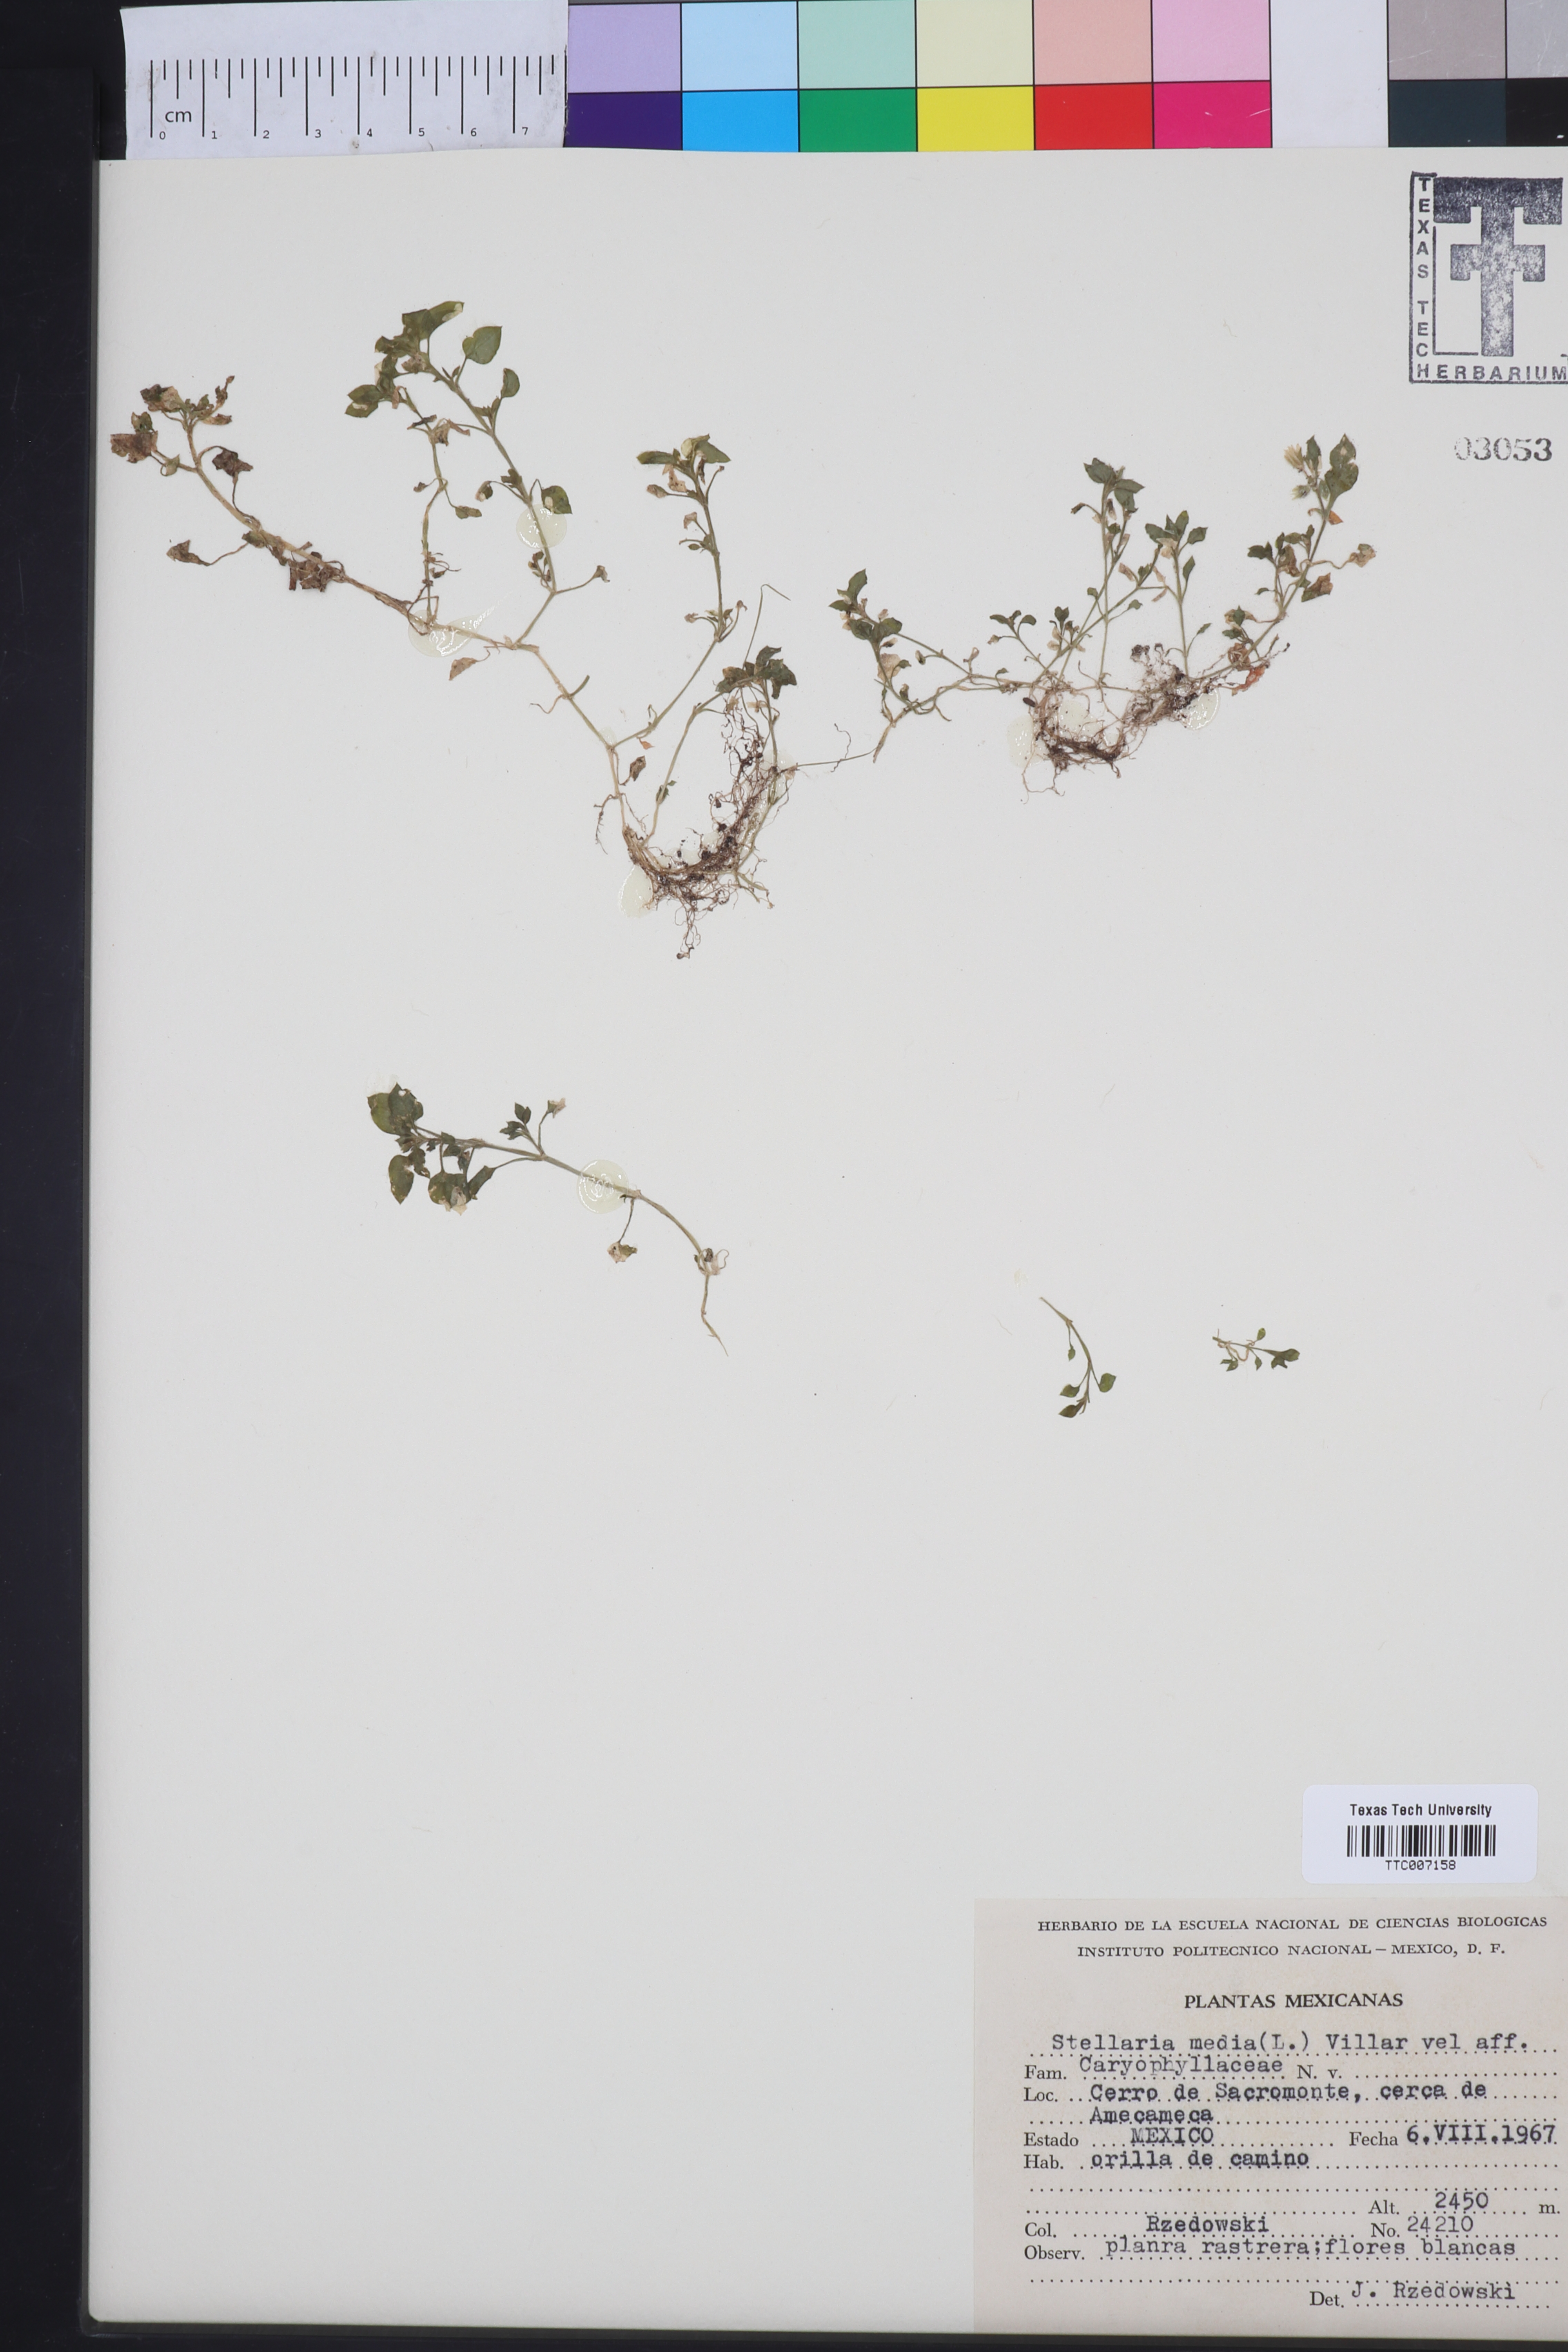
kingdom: Plantae
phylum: Tracheophyta
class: Magnoliopsida
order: Caryophyllales
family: Caryophyllaceae
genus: Stellaria
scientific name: Stellaria media
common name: Common chickweed
